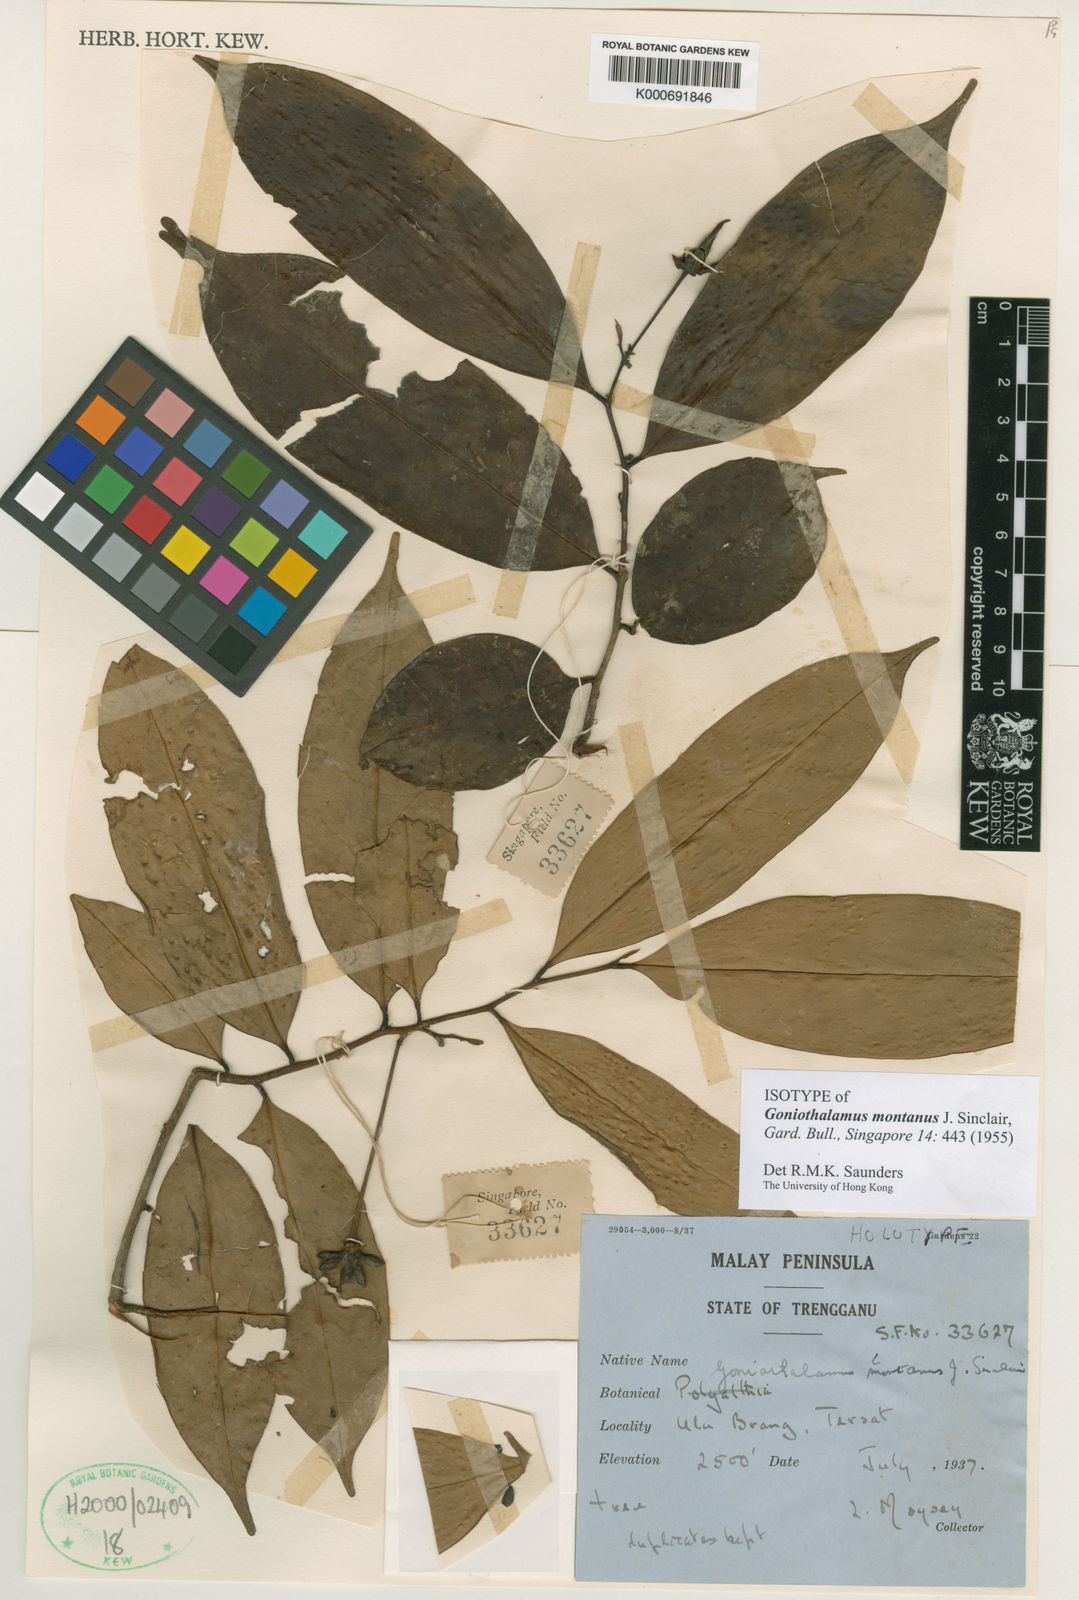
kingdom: Plantae
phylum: Tracheophyta
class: Magnoliopsida
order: Magnoliales
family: Annonaceae
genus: Goniothalamus
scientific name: Goniothalamus montanus
